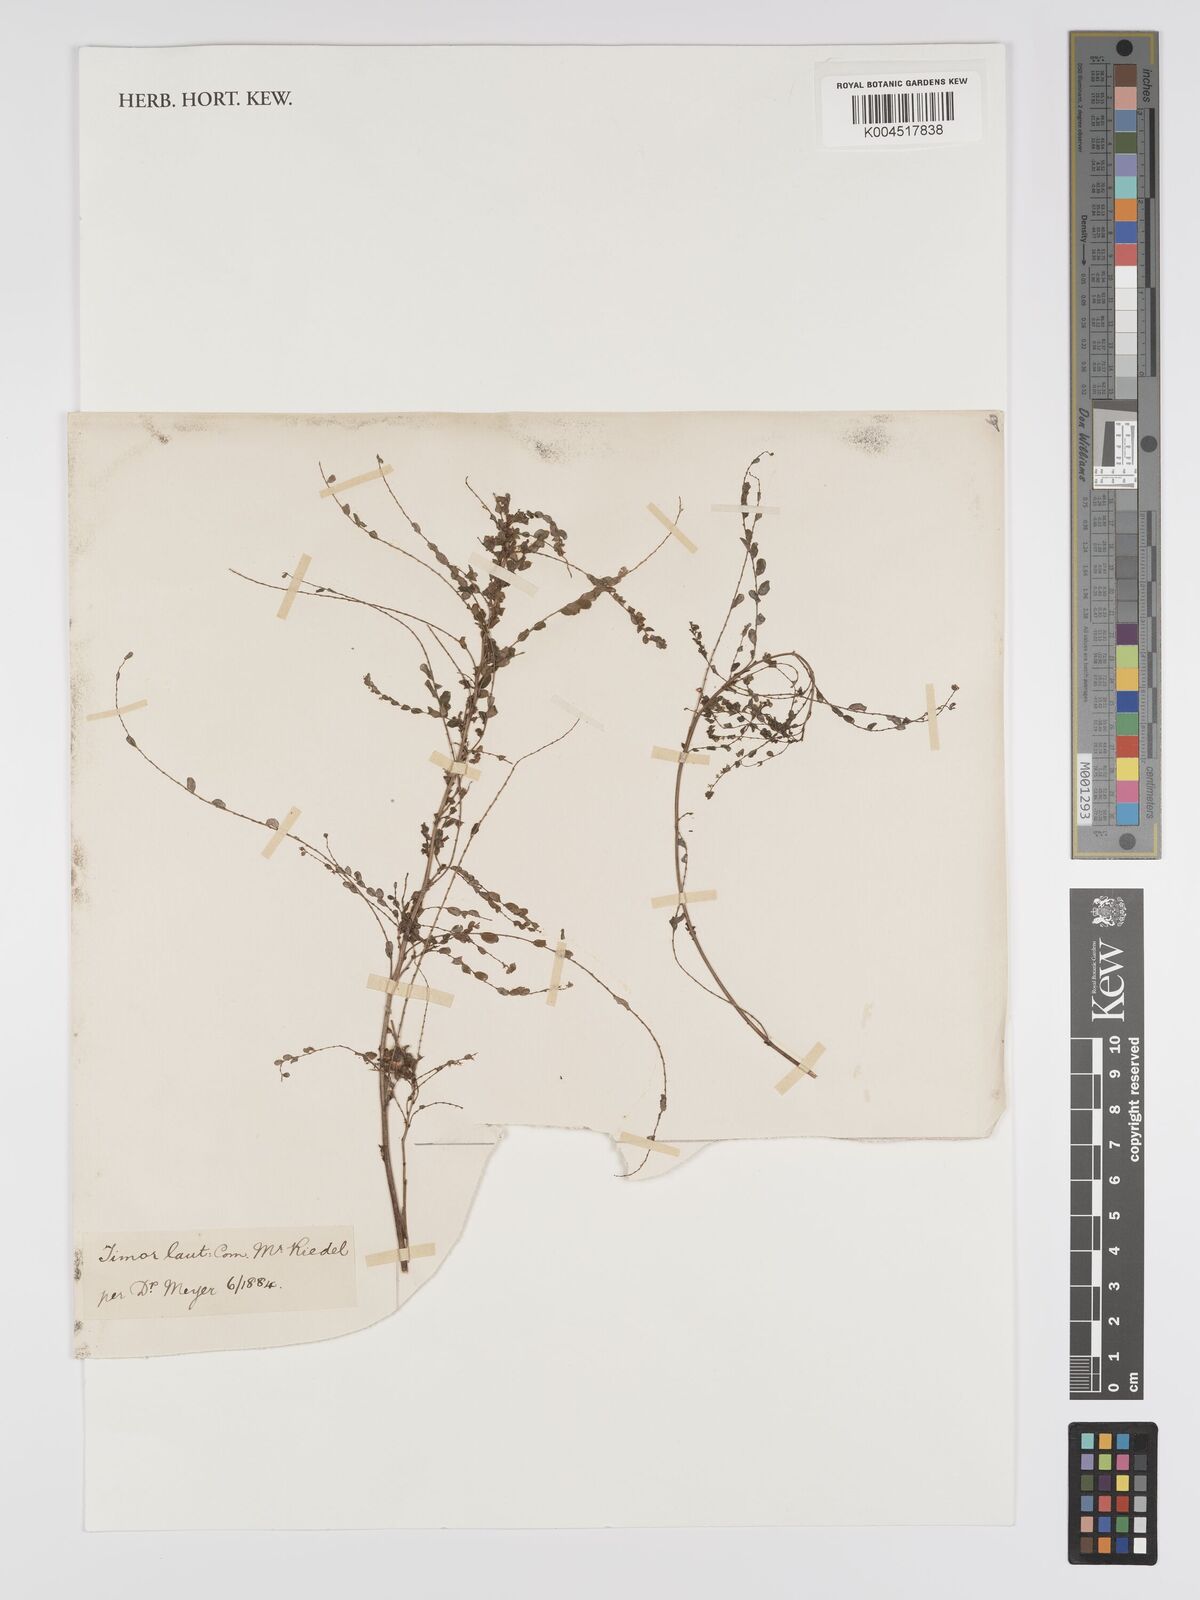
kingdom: Plantae
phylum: Tracheophyta
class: Magnoliopsida
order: Malpighiales
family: Phyllanthaceae
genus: Phyllanthus
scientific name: Phyllanthus niruri
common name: Niruri
